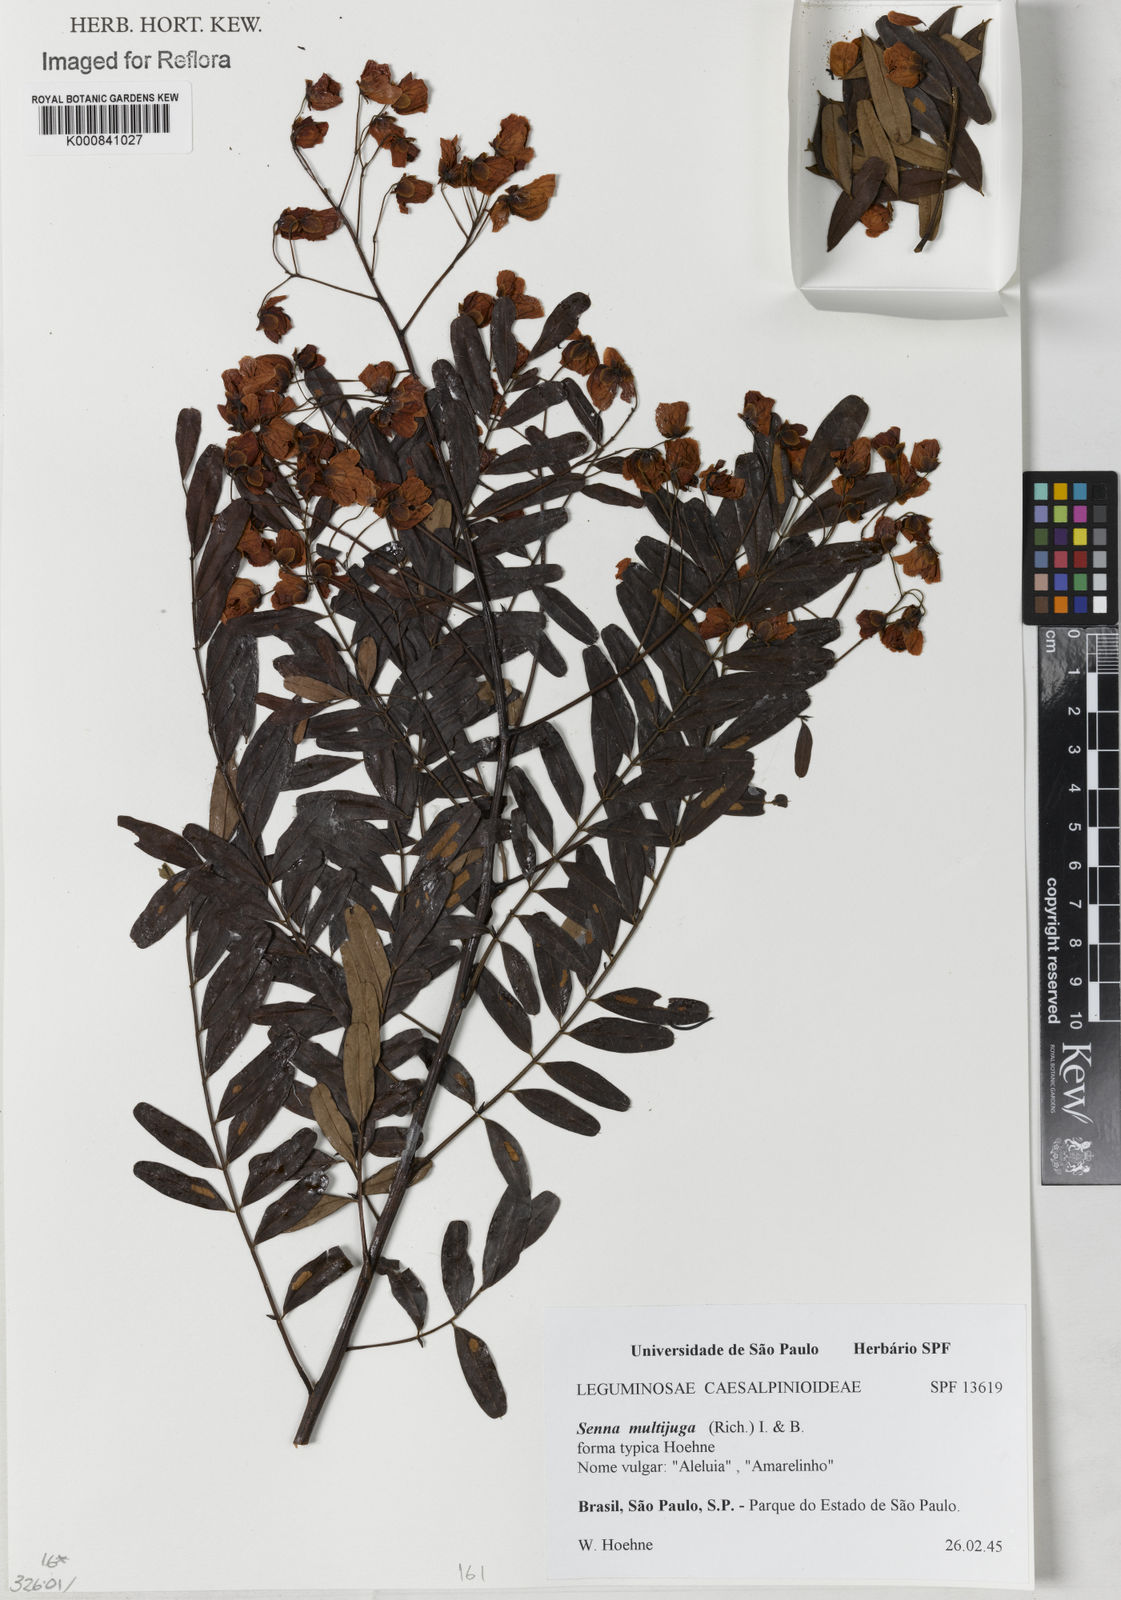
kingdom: Plantae
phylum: Tracheophyta
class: Magnoliopsida
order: Fabales
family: Fabaceae
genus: Senna
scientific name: Senna multijuga
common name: False sicklepod
